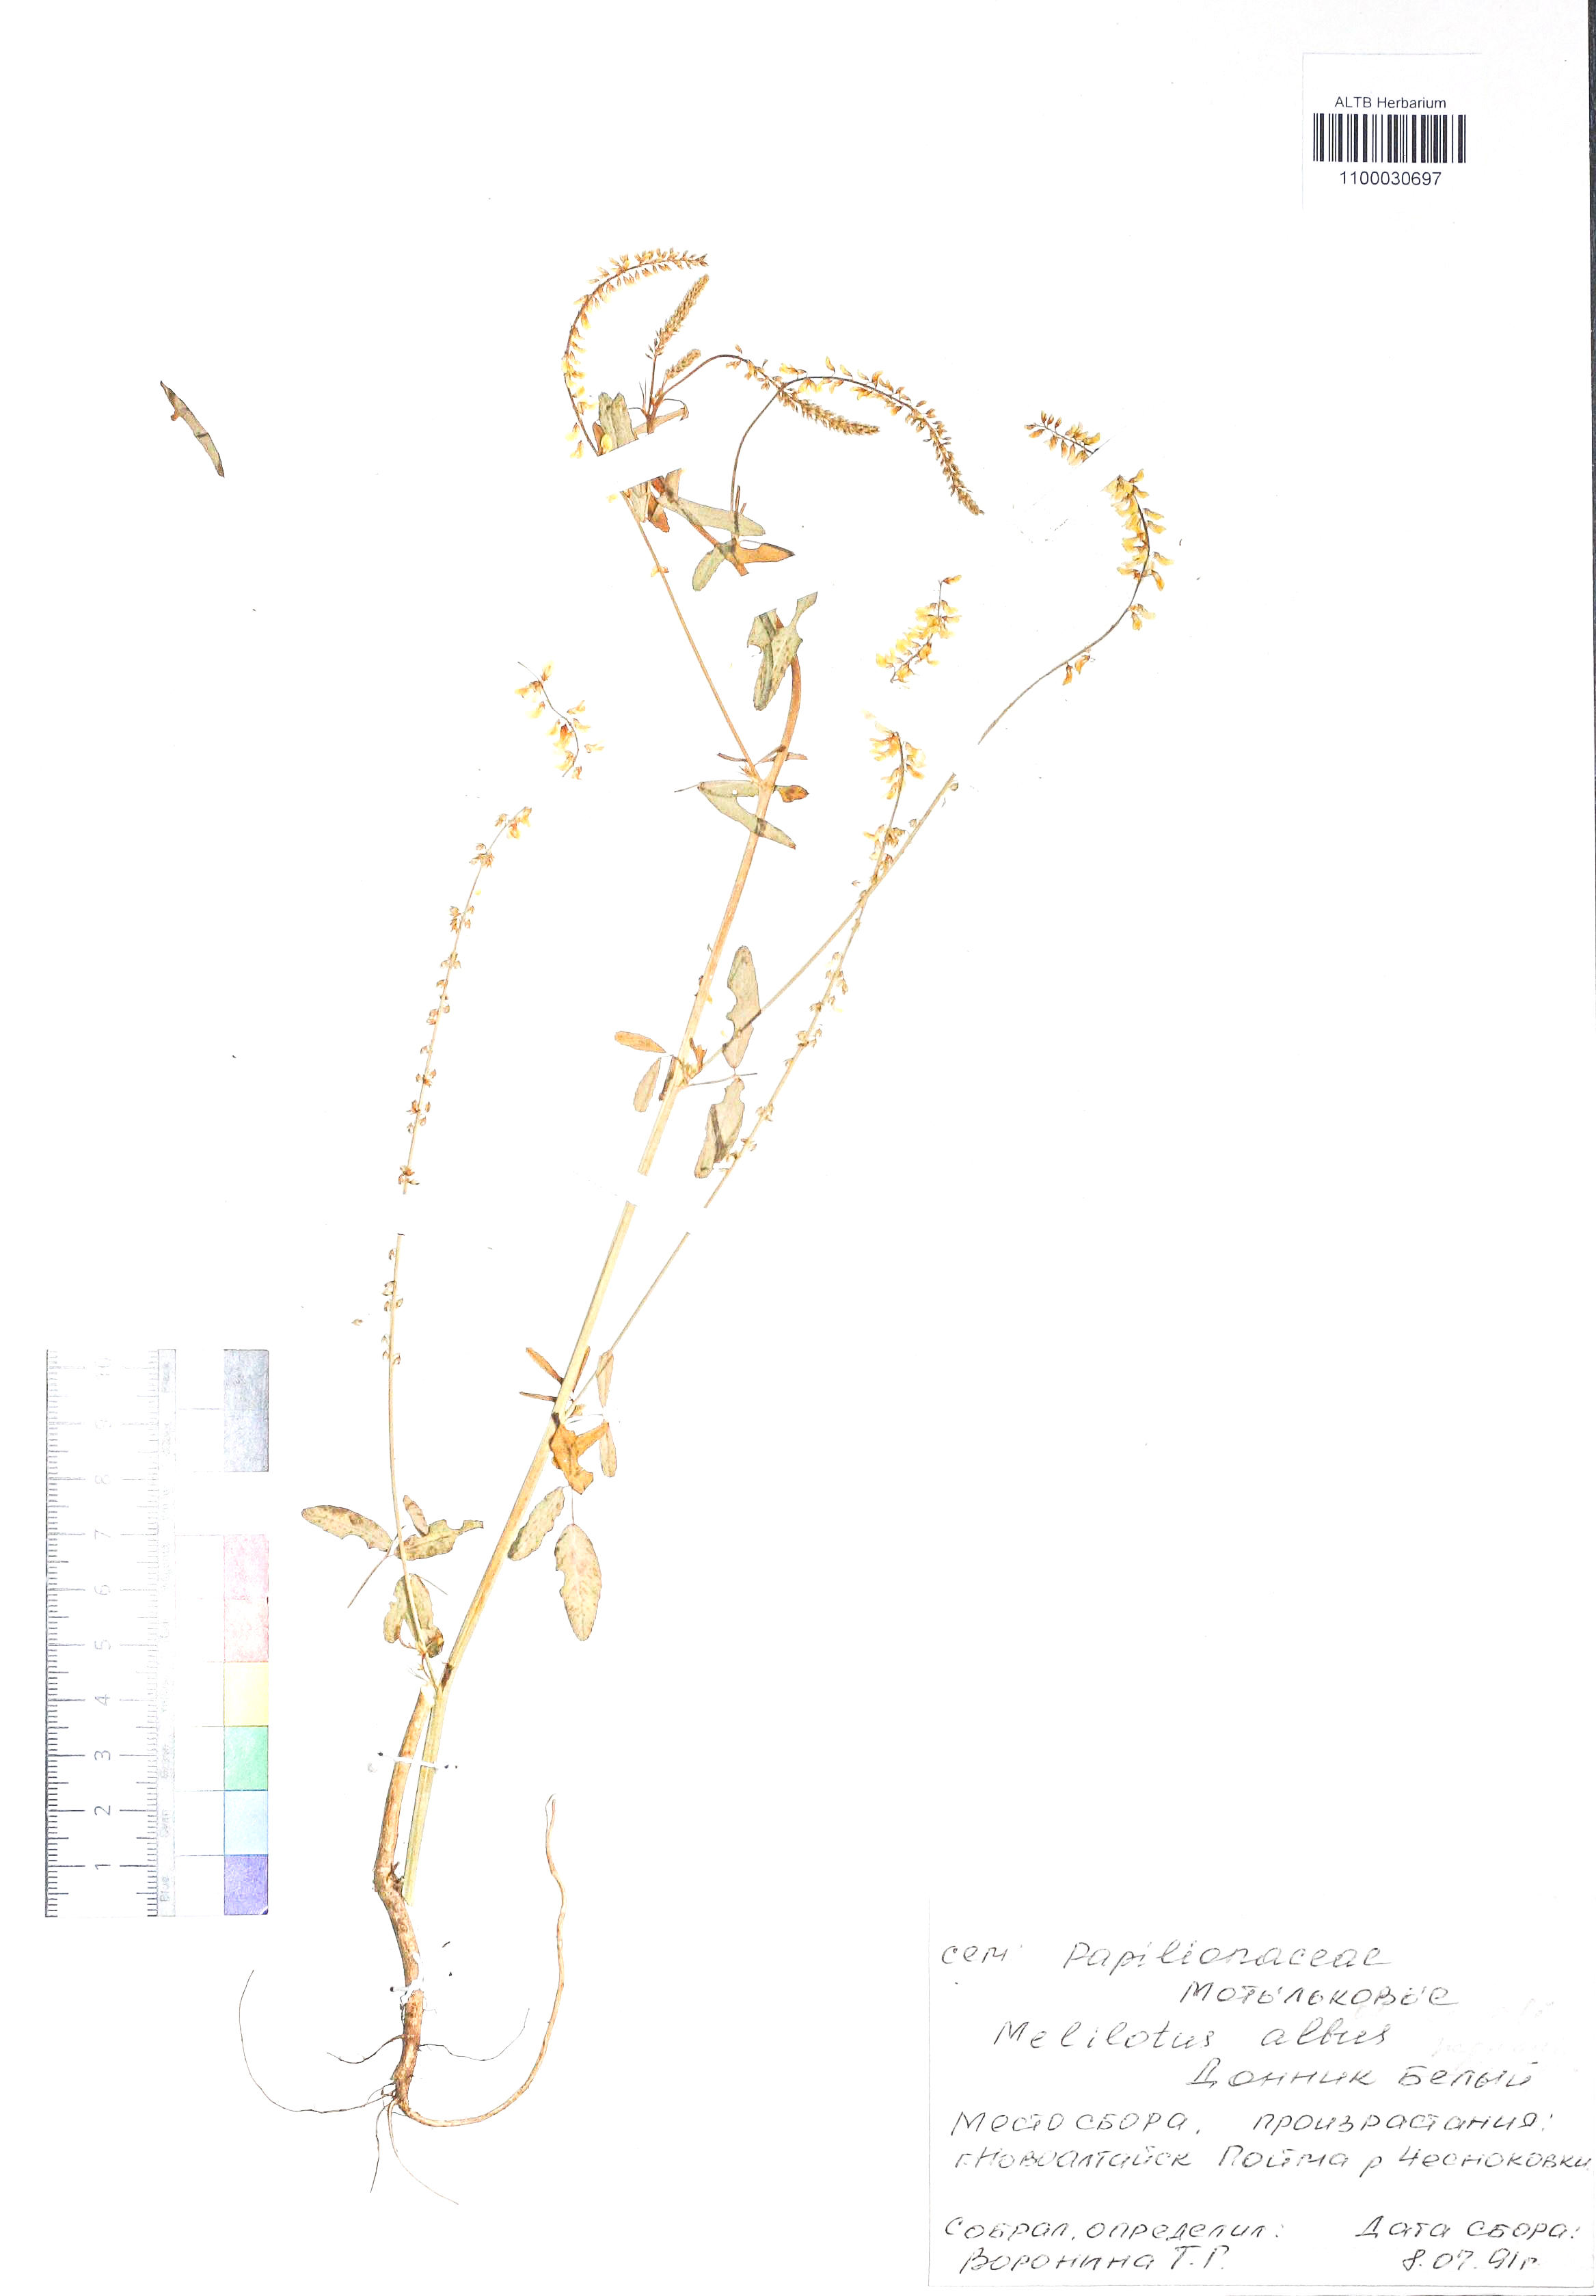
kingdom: Plantae
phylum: Tracheophyta
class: Magnoliopsida
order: Fabales
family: Fabaceae
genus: Melilotus
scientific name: Melilotus albus
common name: White melilot
